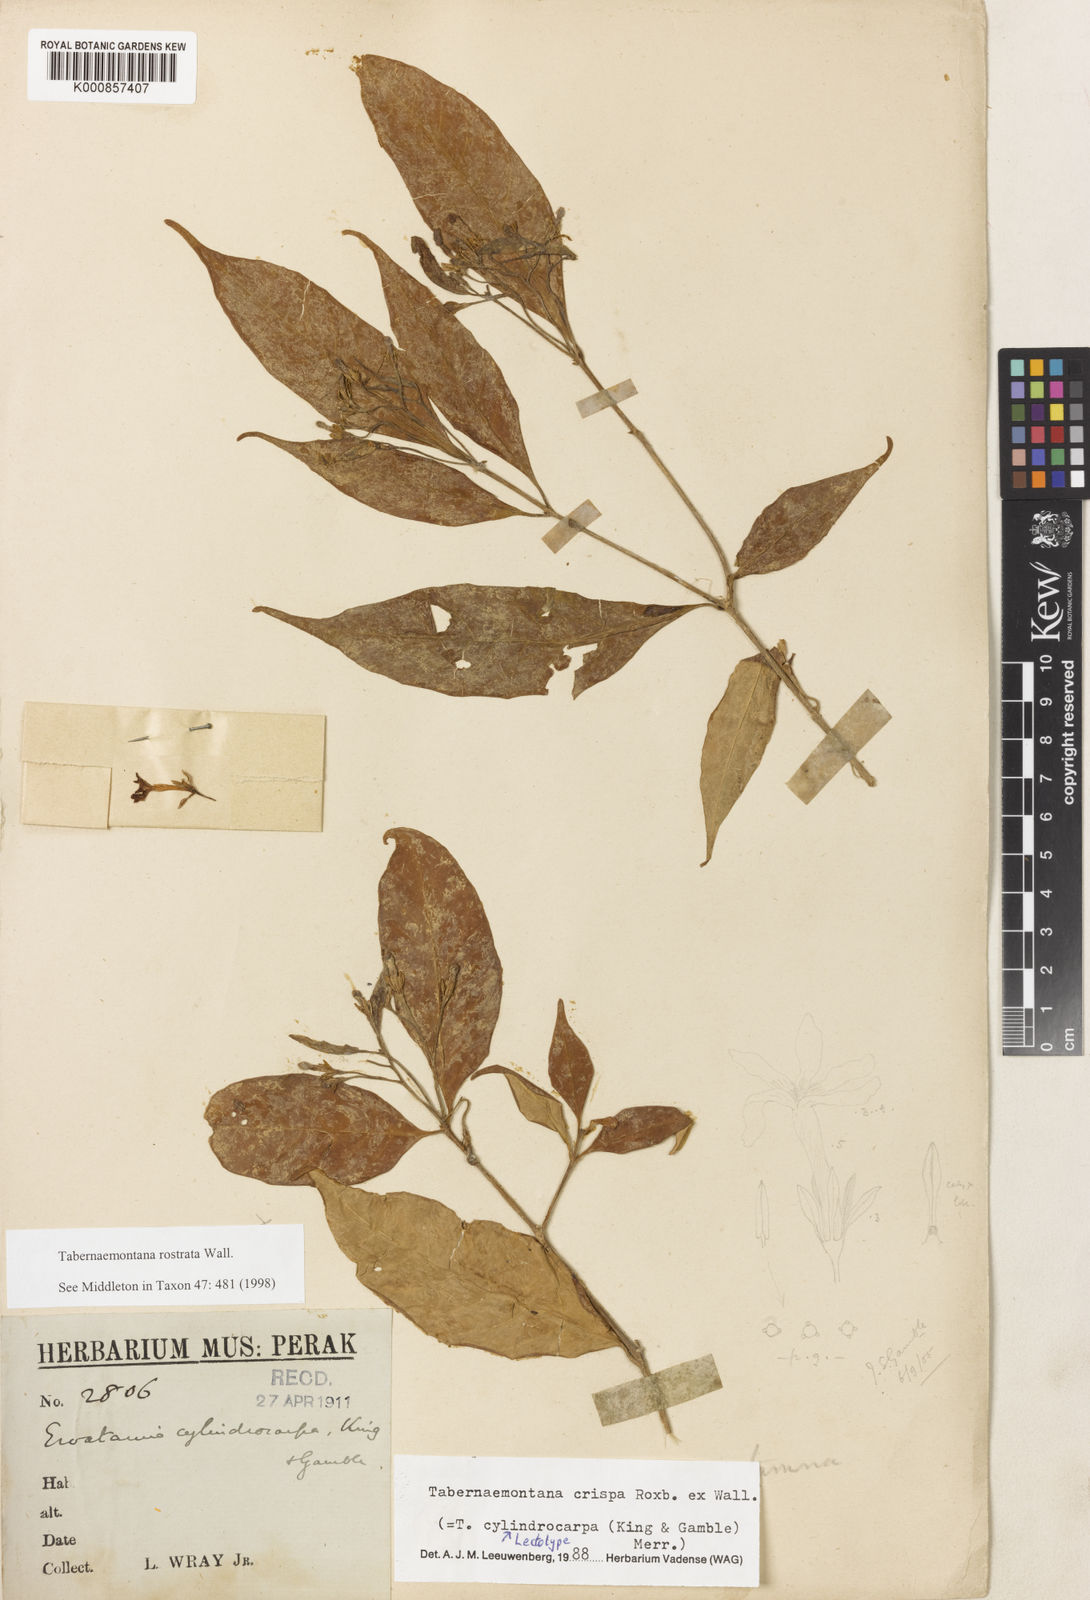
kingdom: Plantae
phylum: Tracheophyta
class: Magnoliopsida
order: Gentianales
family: Apocynaceae
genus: Tabernaemontana
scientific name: Tabernaemontana rostrata
